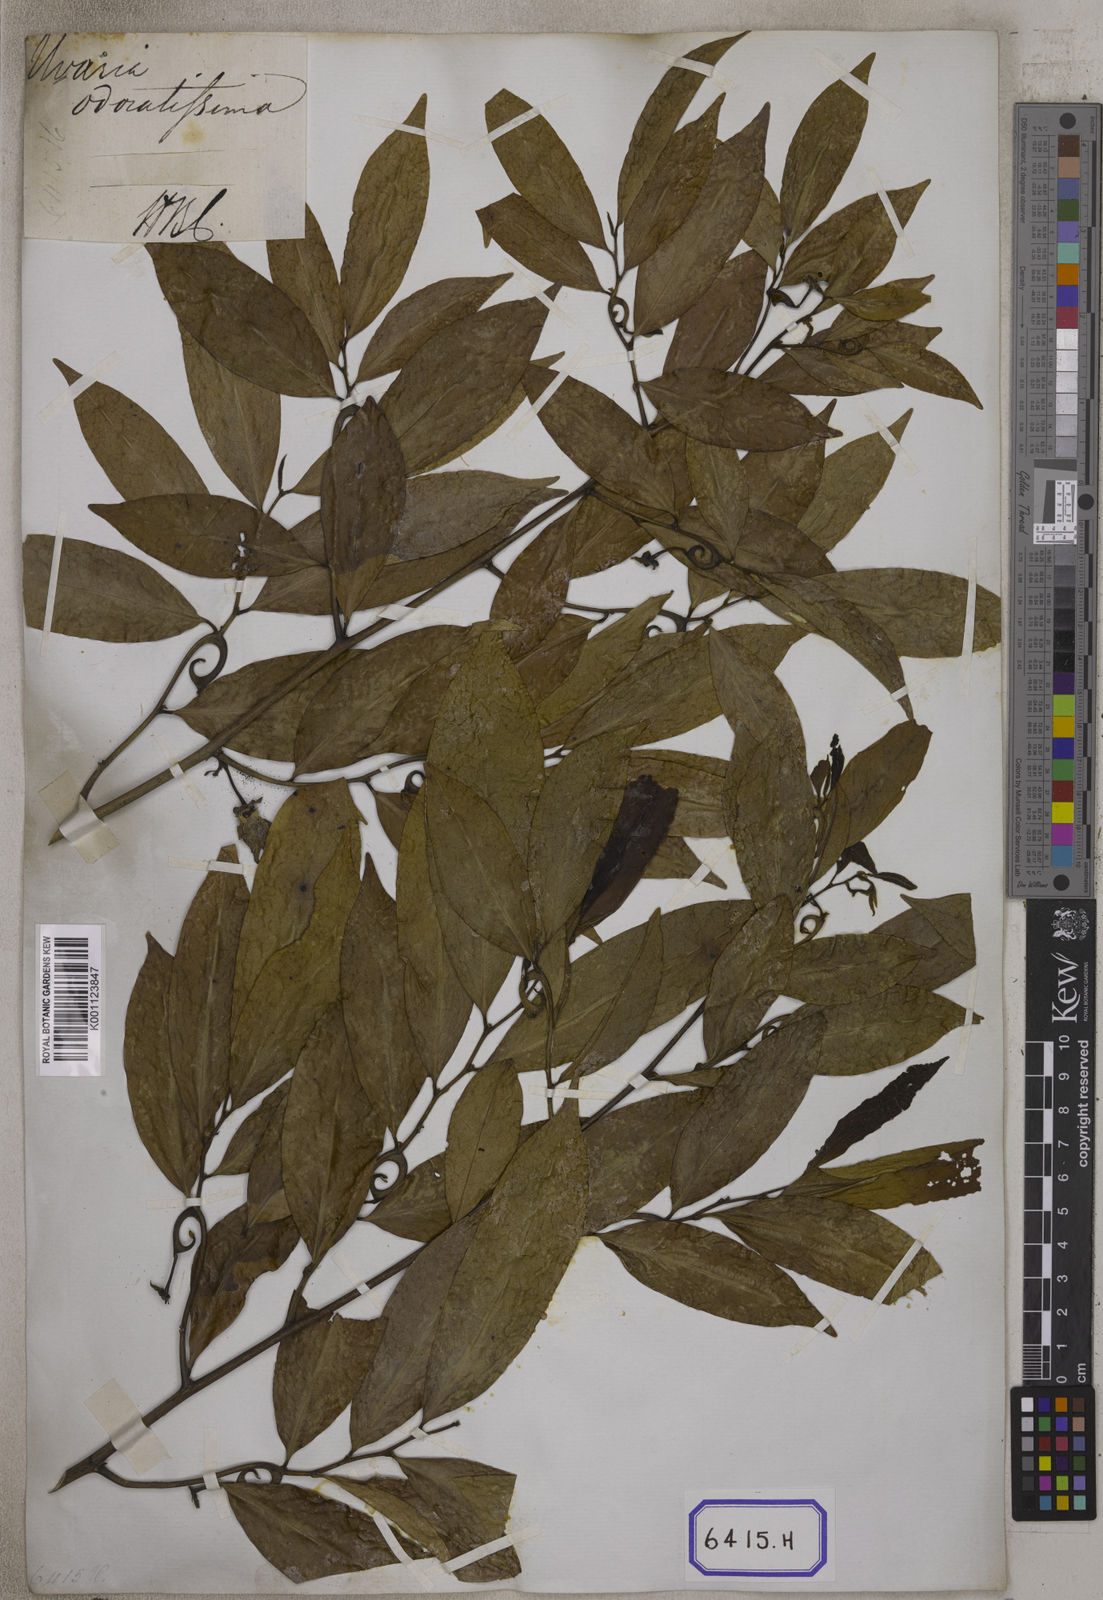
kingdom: Plantae
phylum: Tracheophyta
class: Magnoliopsida
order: Magnoliales
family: Annonaceae
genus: Artabotrys
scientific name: Artabotrys hexapetalus
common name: Climbing ilang-ilang
